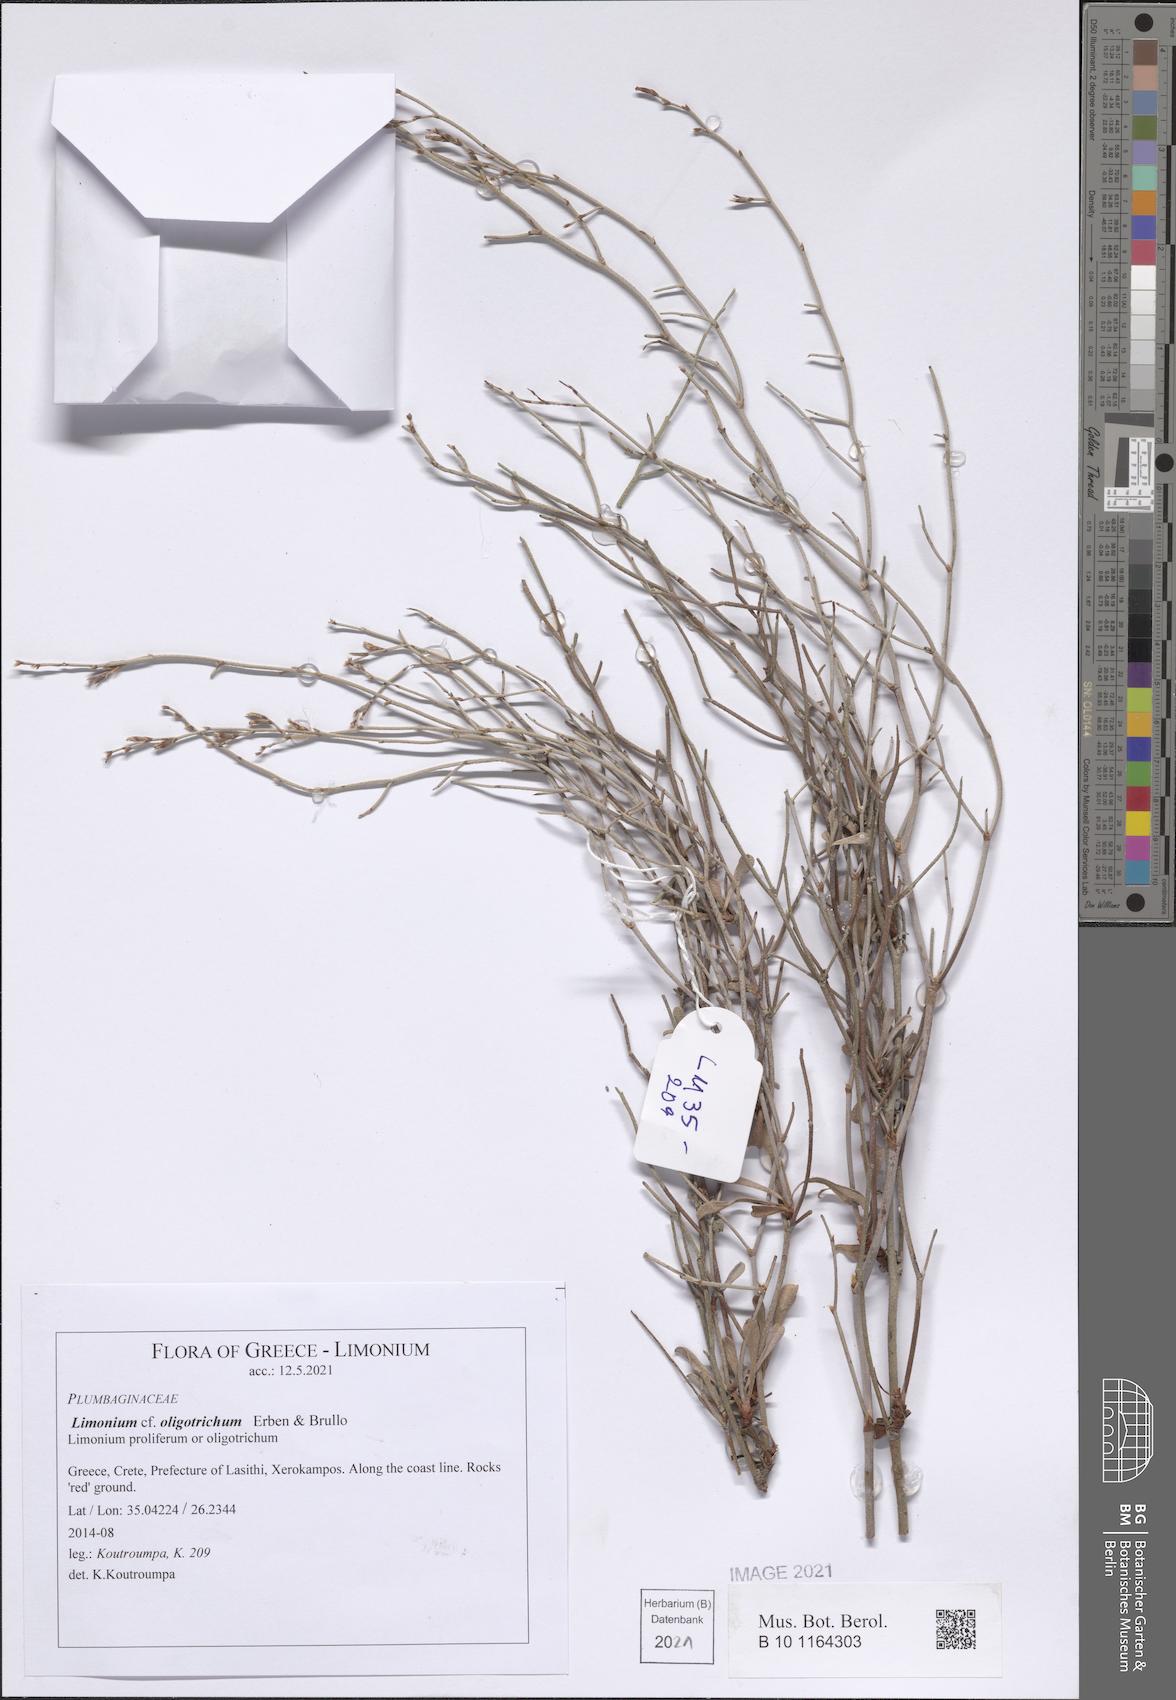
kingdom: Plantae
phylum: Tracheophyta
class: Magnoliopsida
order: Caryophyllales
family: Plumbaginaceae
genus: Limonium
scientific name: Limonium oligotrichum
